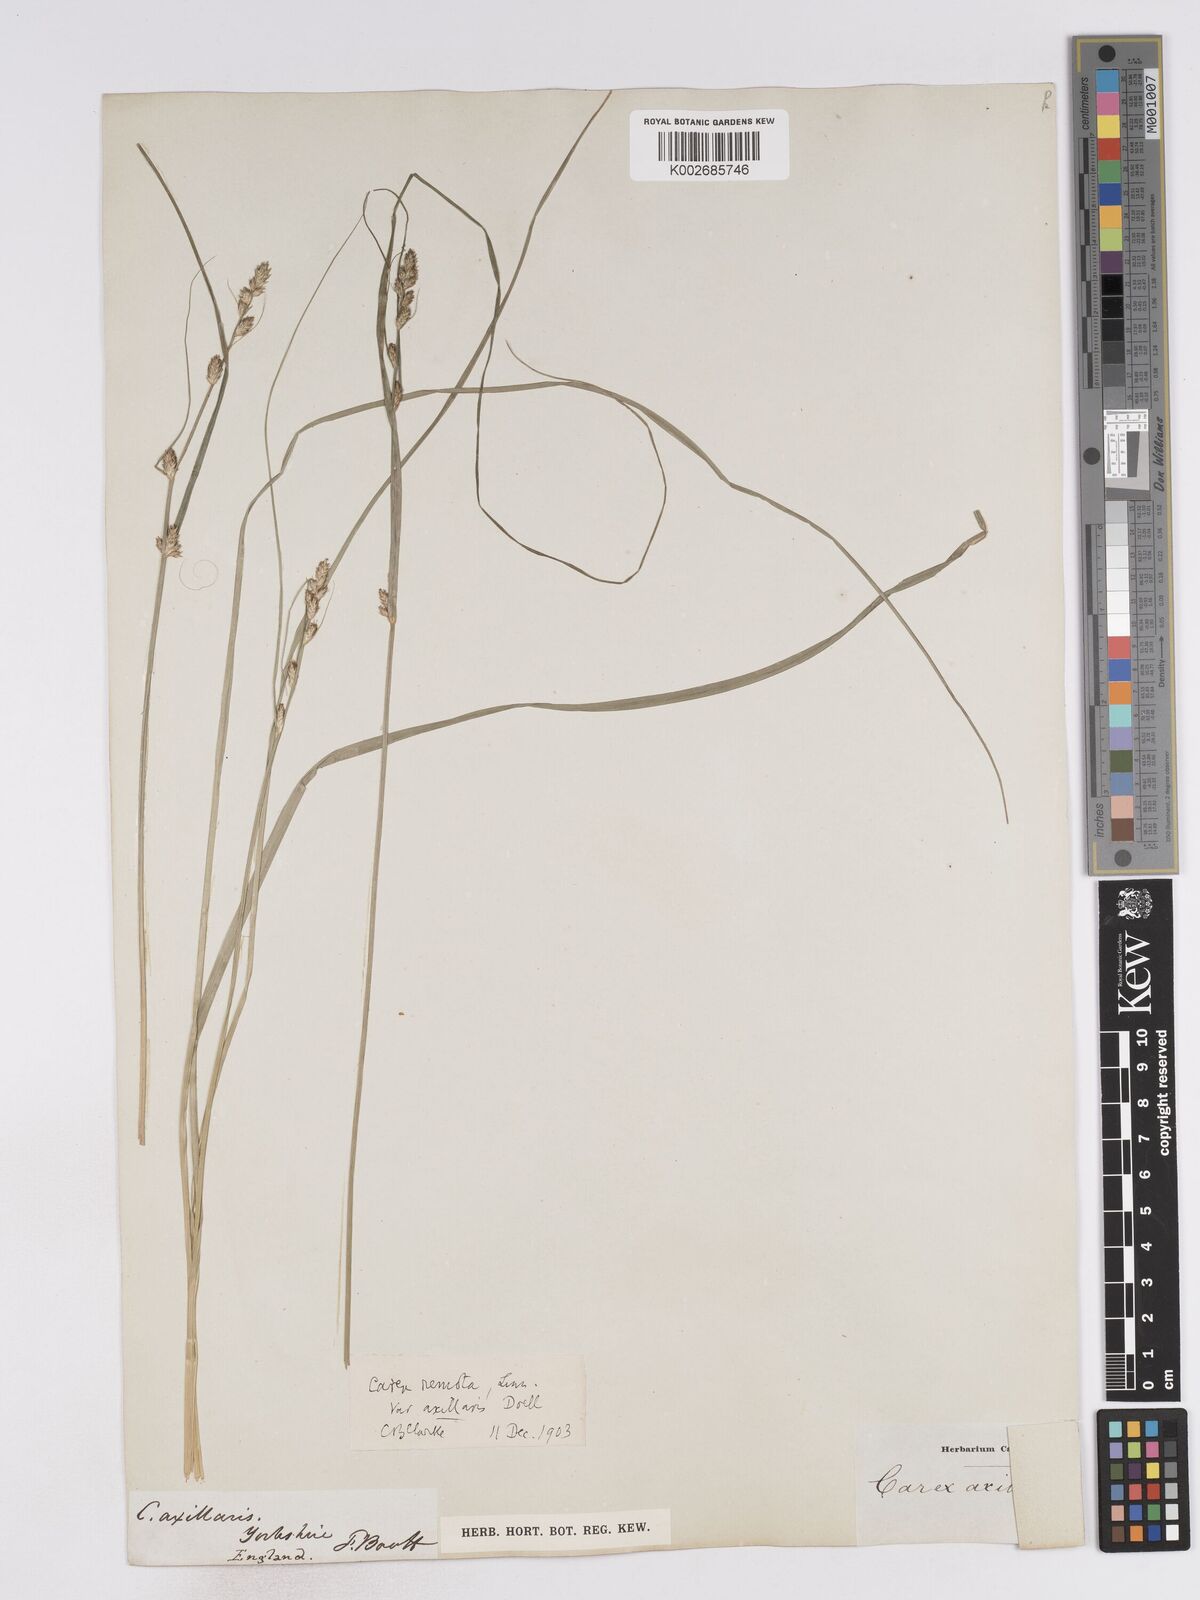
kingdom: Plantae
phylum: Tracheophyta
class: Liliopsida
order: Poales
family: Cyperaceae
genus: Carex
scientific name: Carex remota
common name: Remote sedge
